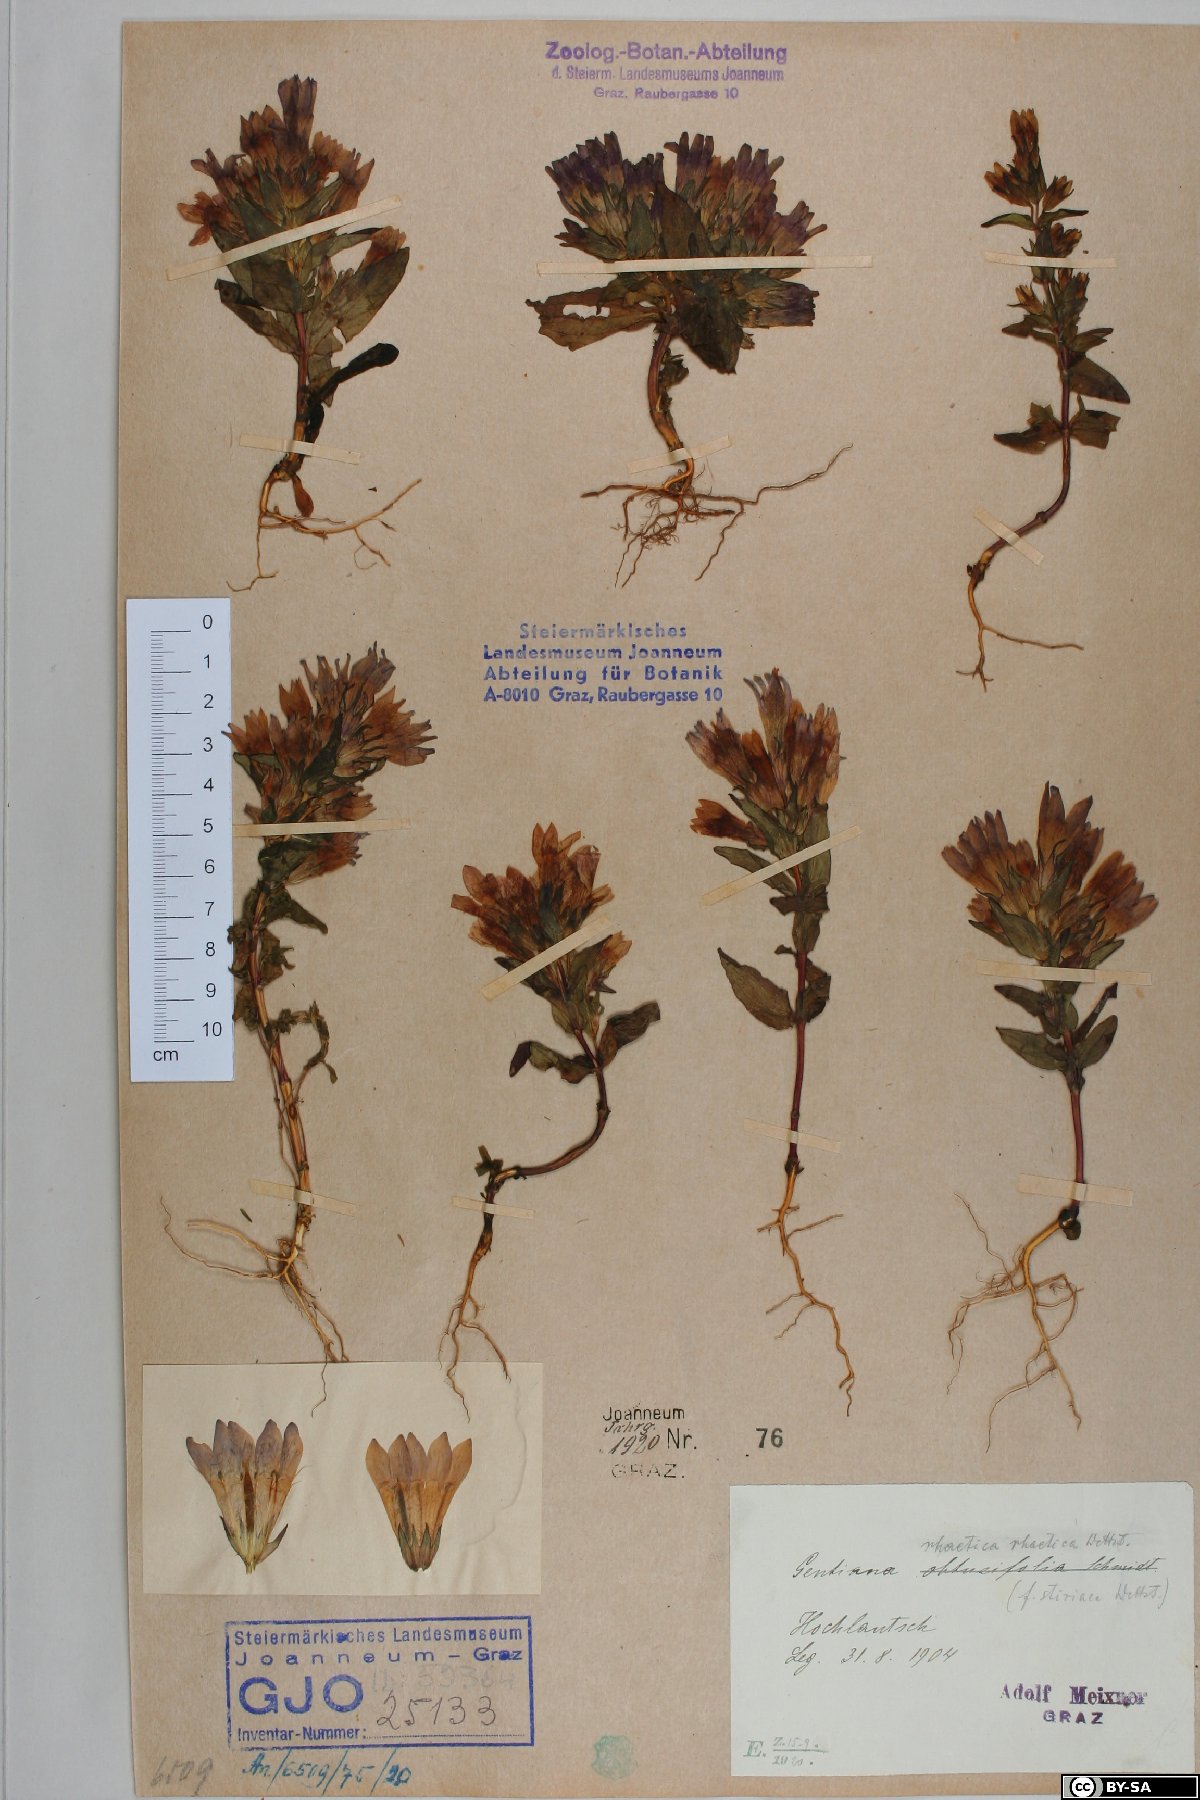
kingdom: Plantae
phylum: Tracheophyta
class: Magnoliopsida
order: Gentianales
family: Gentianaceae
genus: Gentianella
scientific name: Gentianella rhaetica
